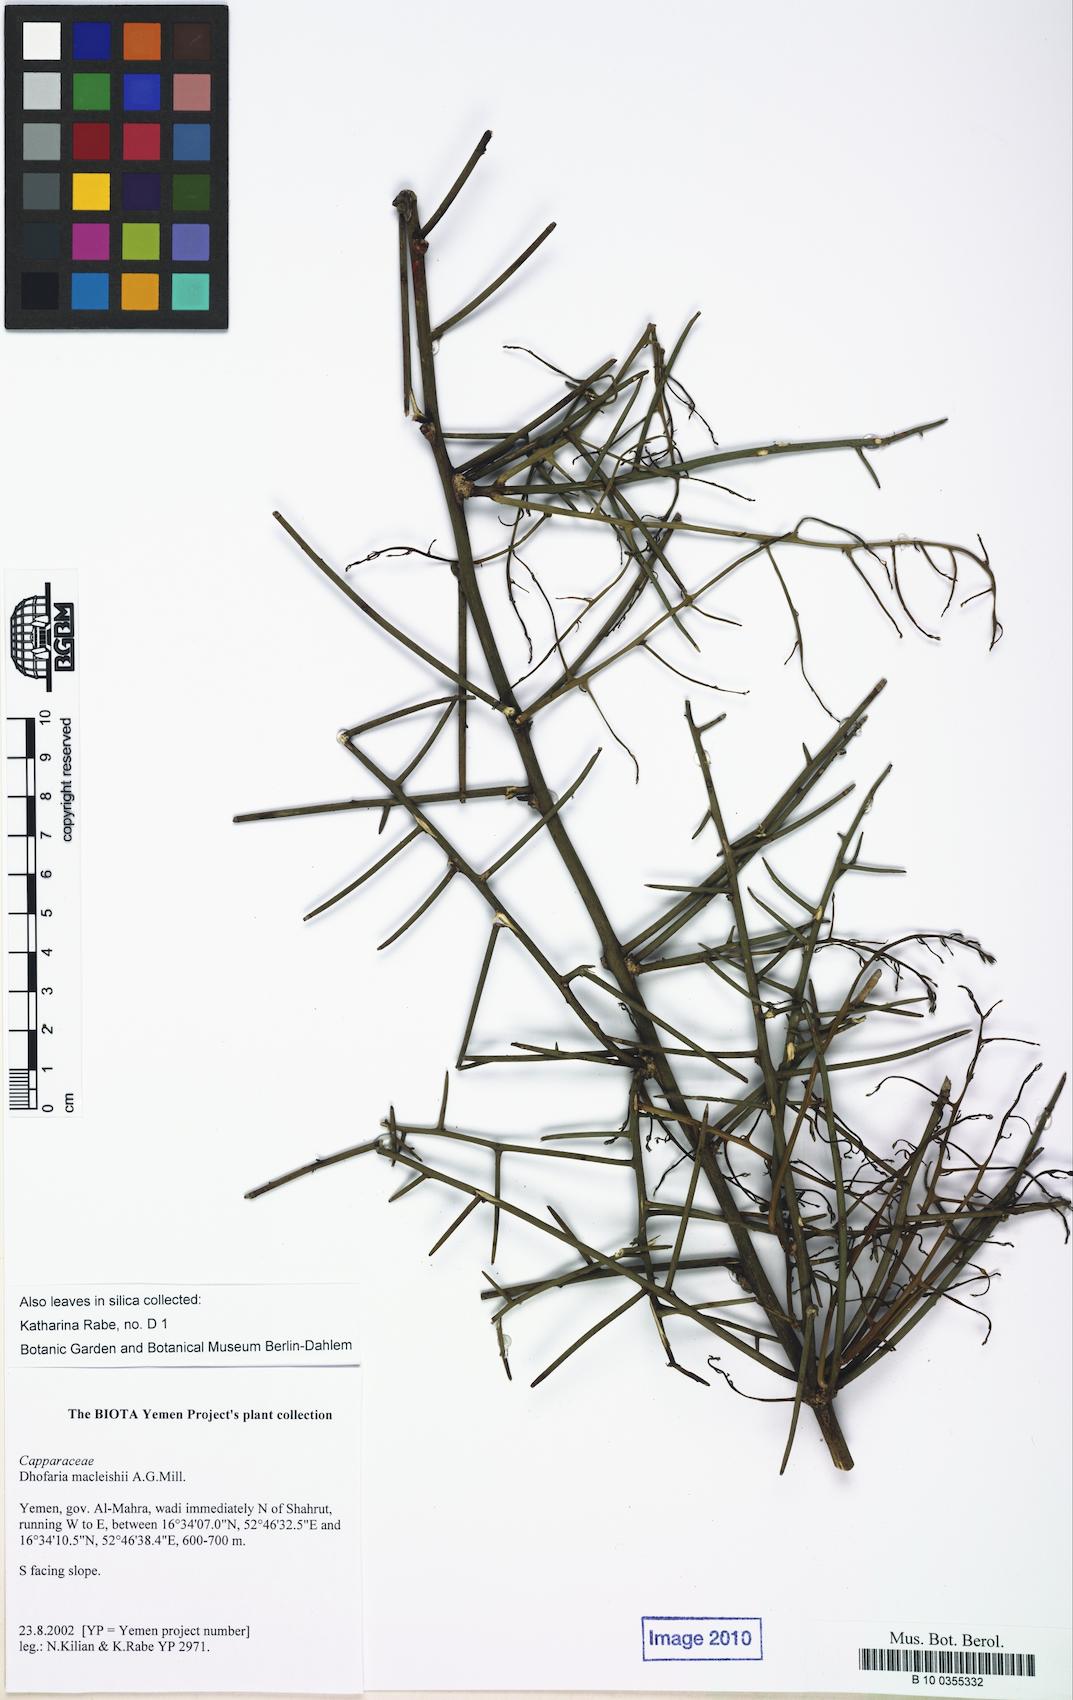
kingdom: Plantae
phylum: Tracheophyta
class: Magnoliopsida
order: Brassicales
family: Capparaceae
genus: Dhofaria
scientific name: Dhofaria macleishii
